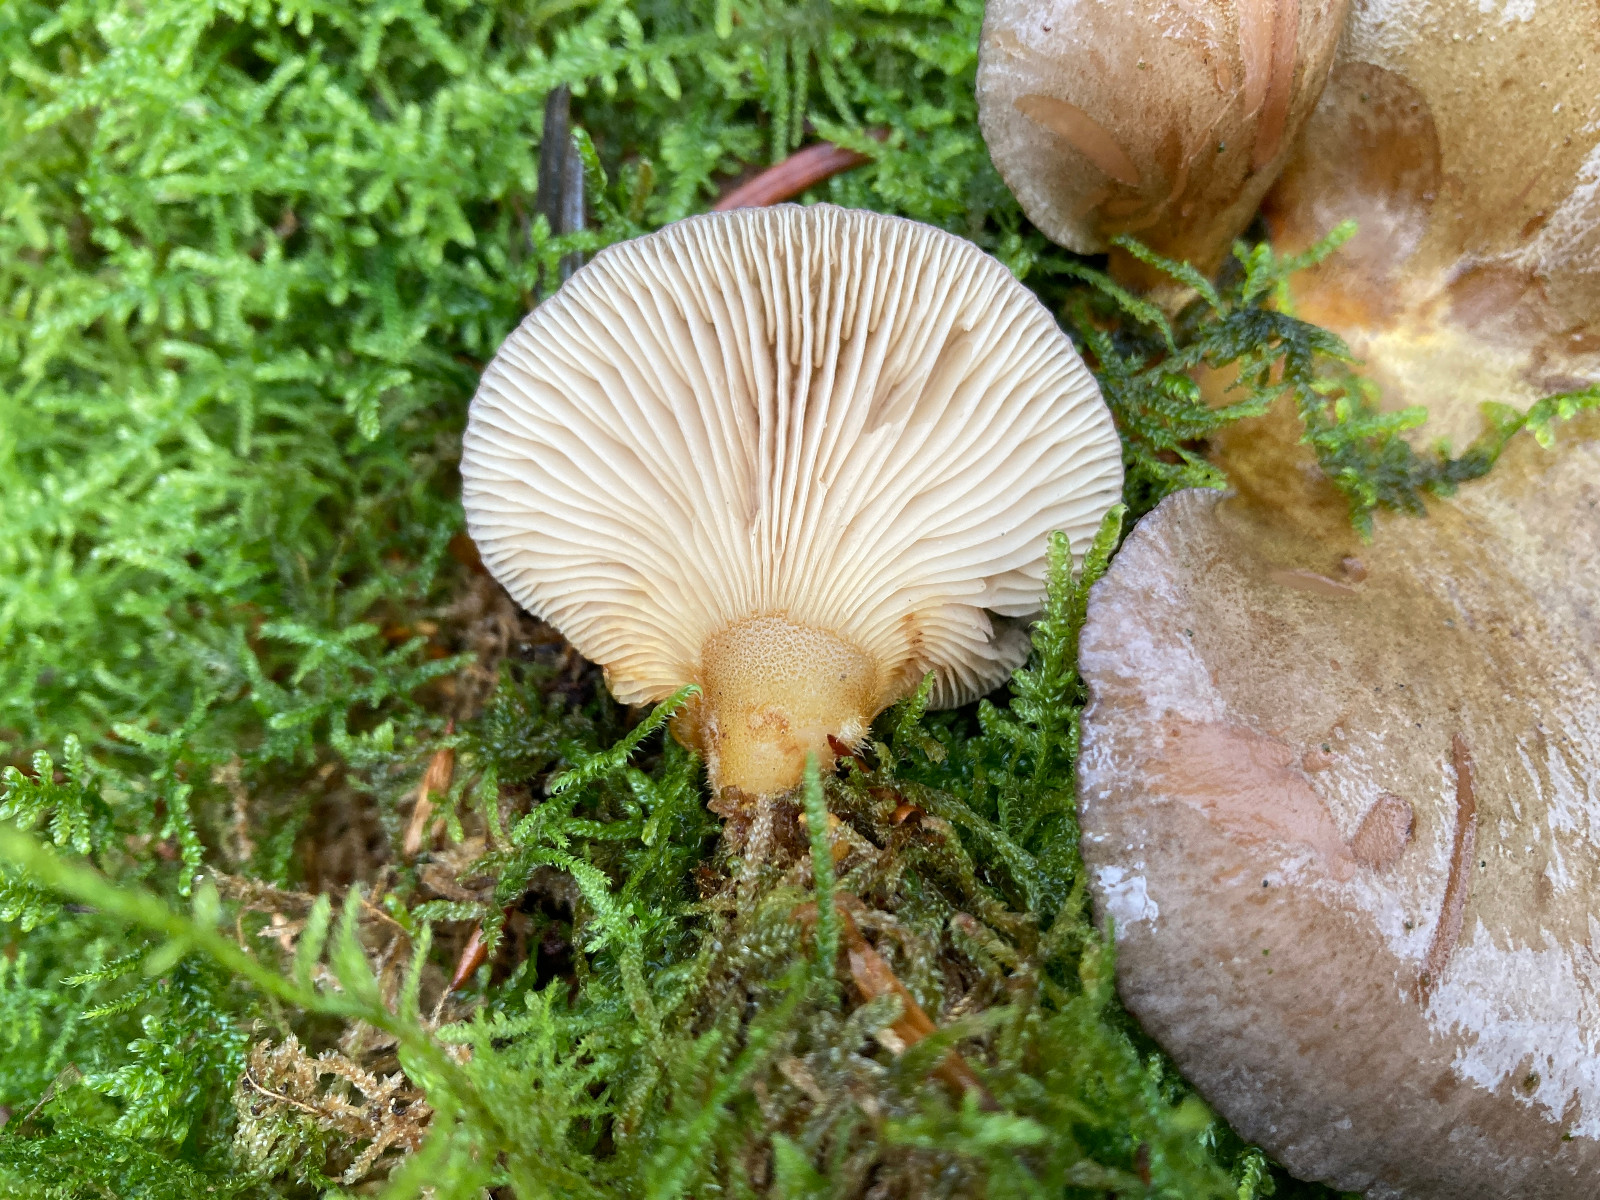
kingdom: Fungi
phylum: Basidiomycota
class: Agaricomycetes
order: Agaricales
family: Sarcomyxaceae
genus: Sarcomyxa
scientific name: Sarcomyxa serotina
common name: gummihat
